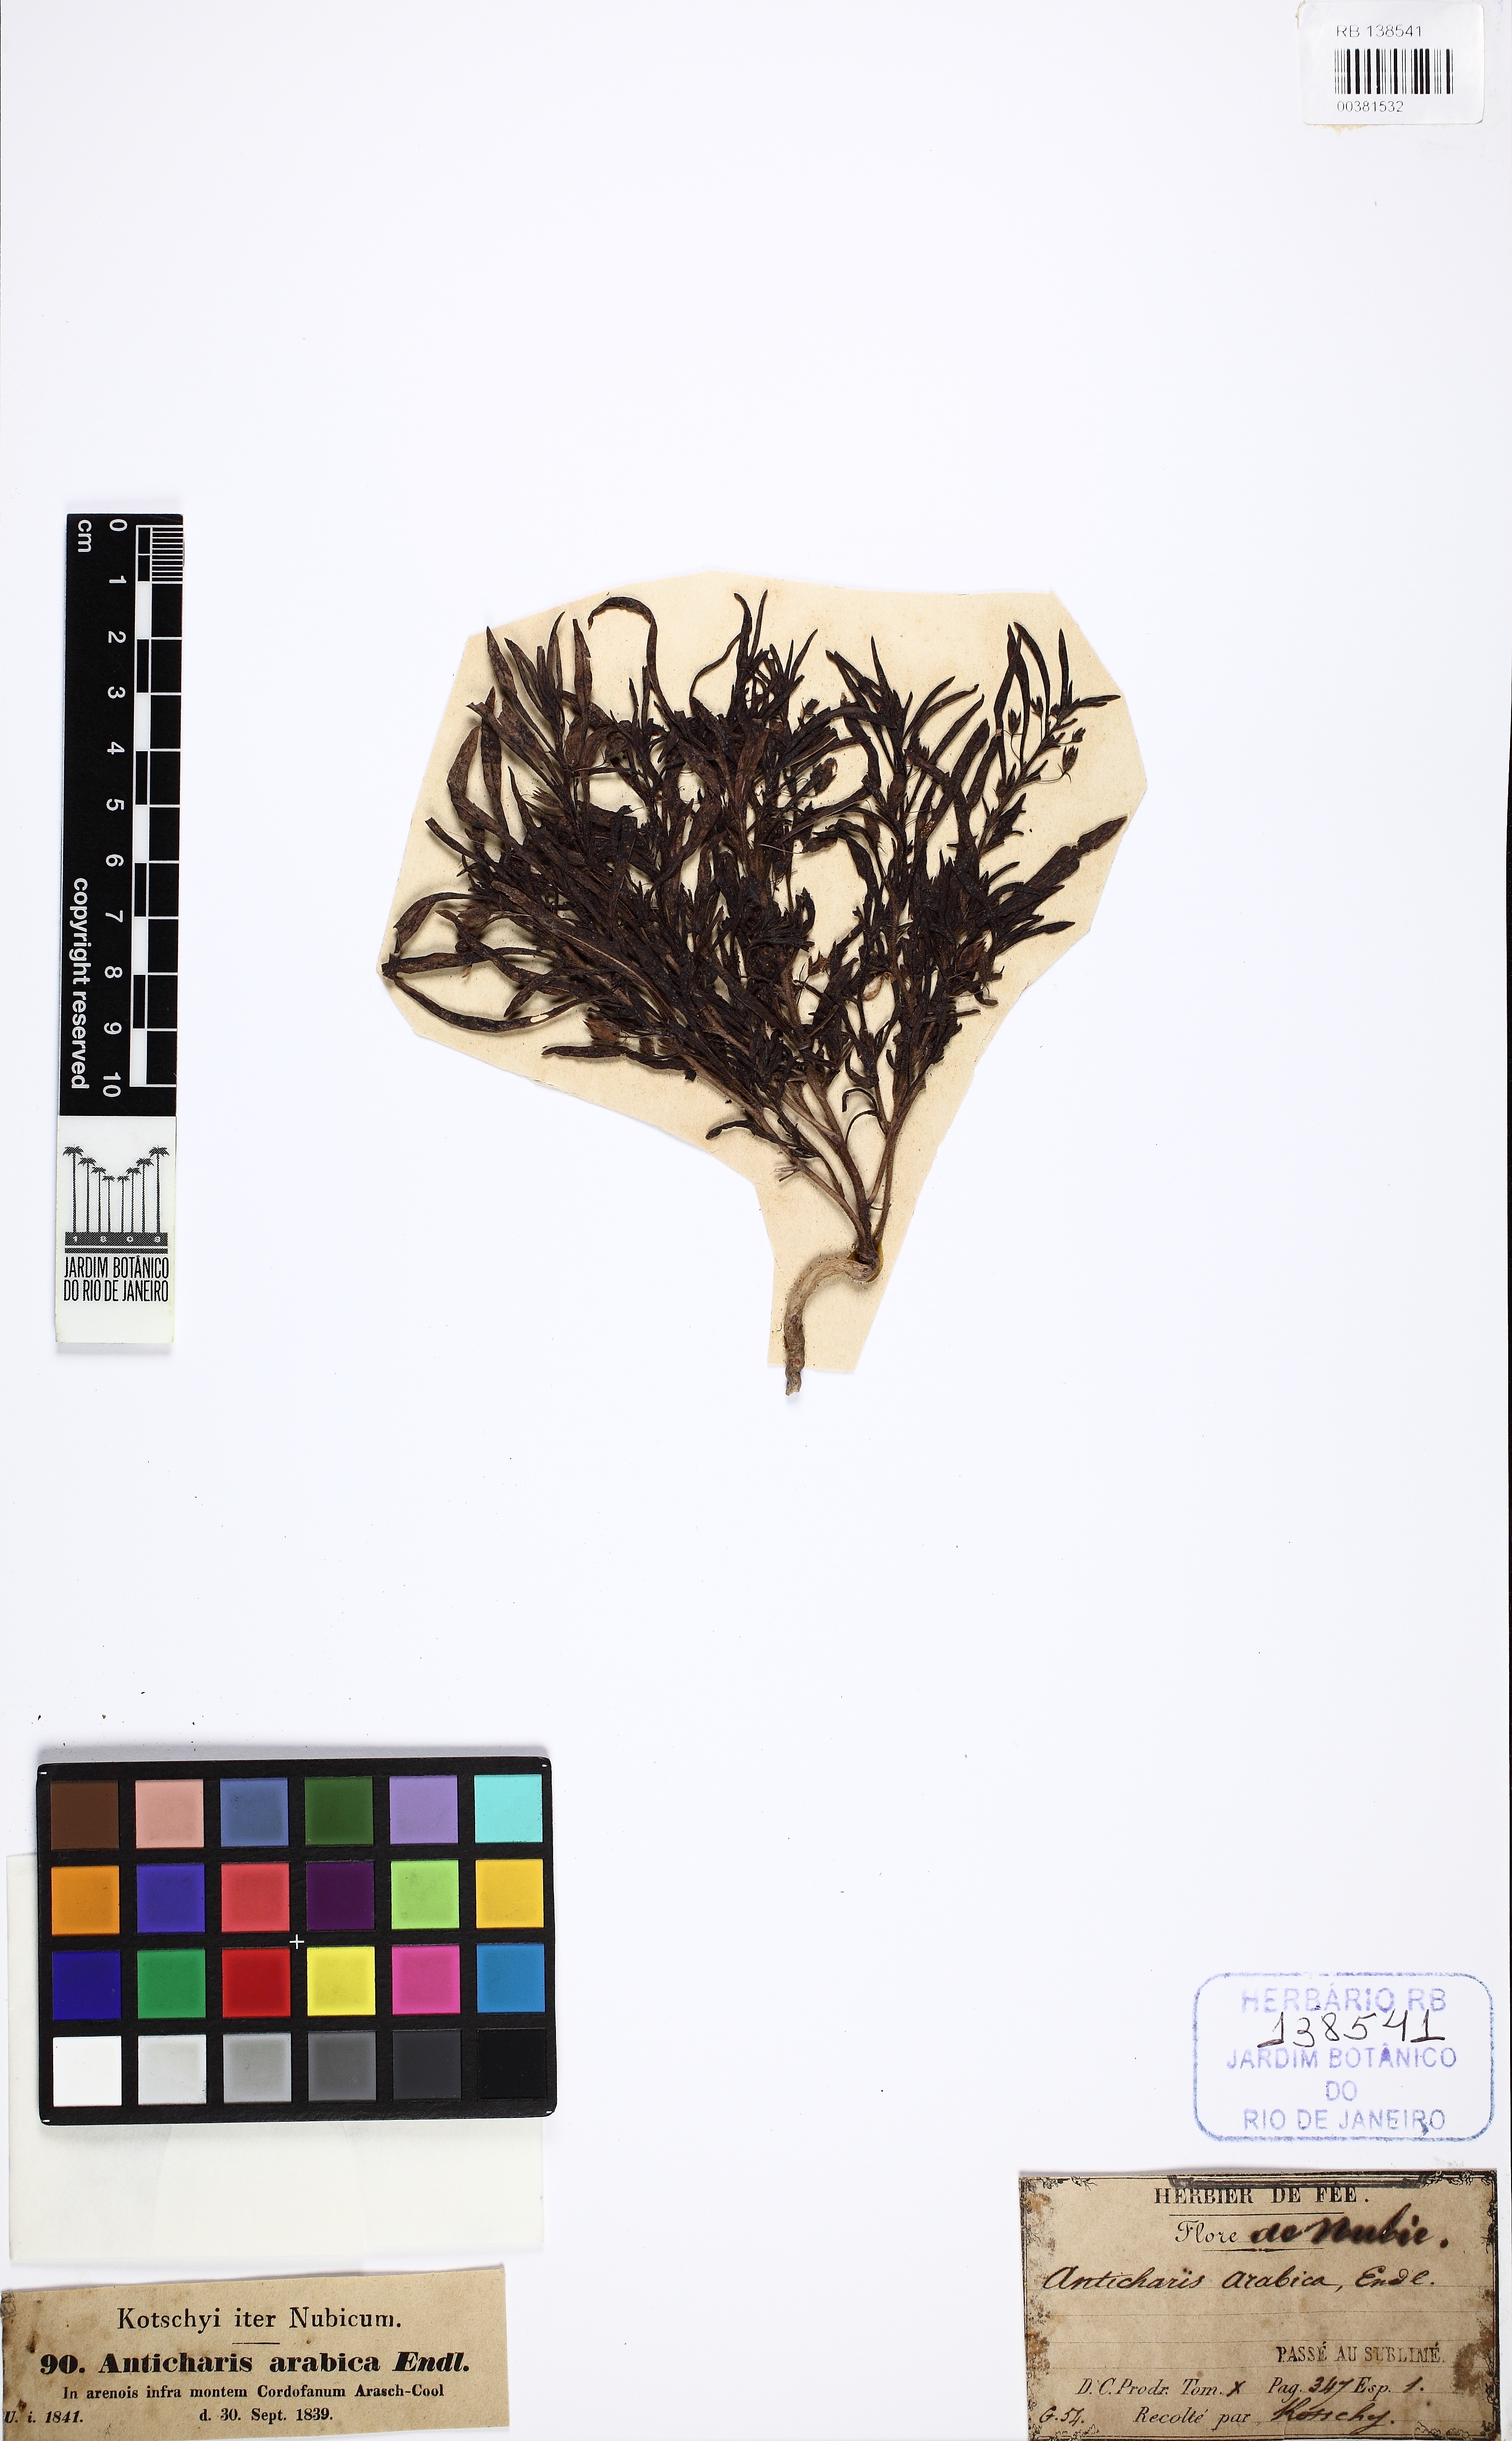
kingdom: Plantae
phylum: Tracheophyta
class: Magnoliopsida
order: Lamiales
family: Scrophulariaceae
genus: Anticharis
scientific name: Anticharis arabica
